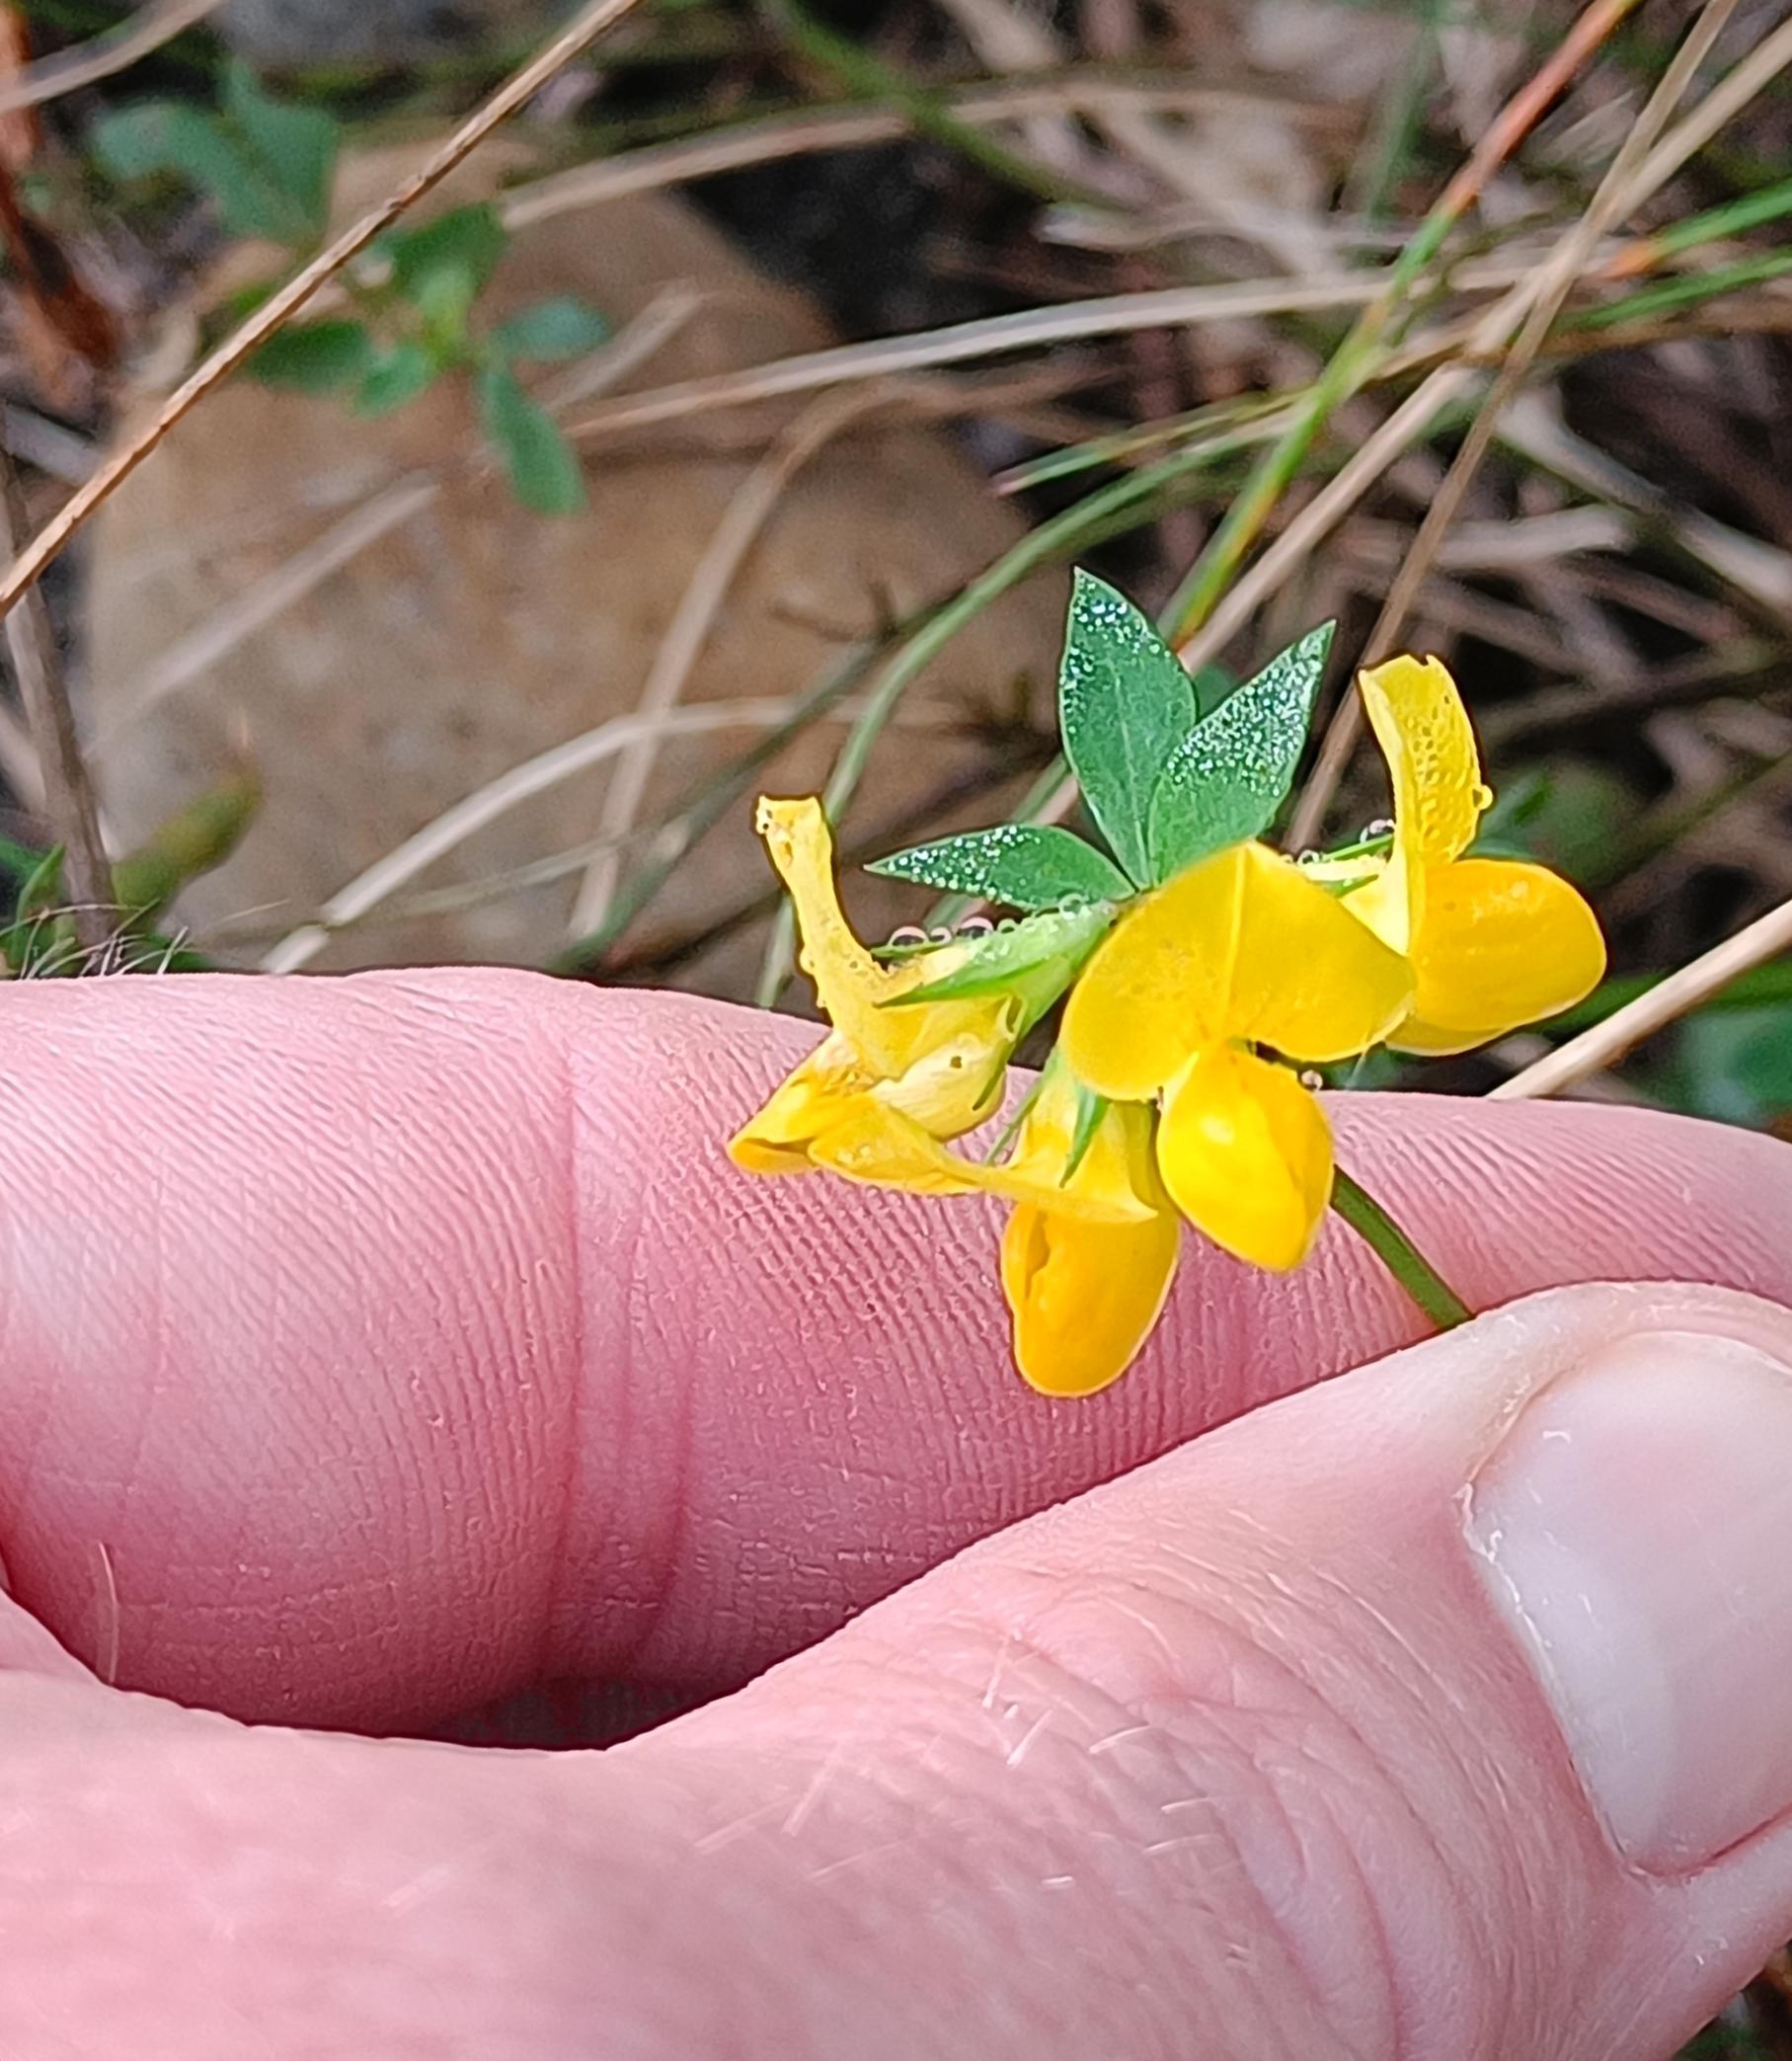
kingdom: Plantae
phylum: Tracheophyta
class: Magnoliopsida
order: Fabales
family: Fabaceae
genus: Lotus
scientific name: Lotus corniculatus
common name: Almindelig kællingetand
